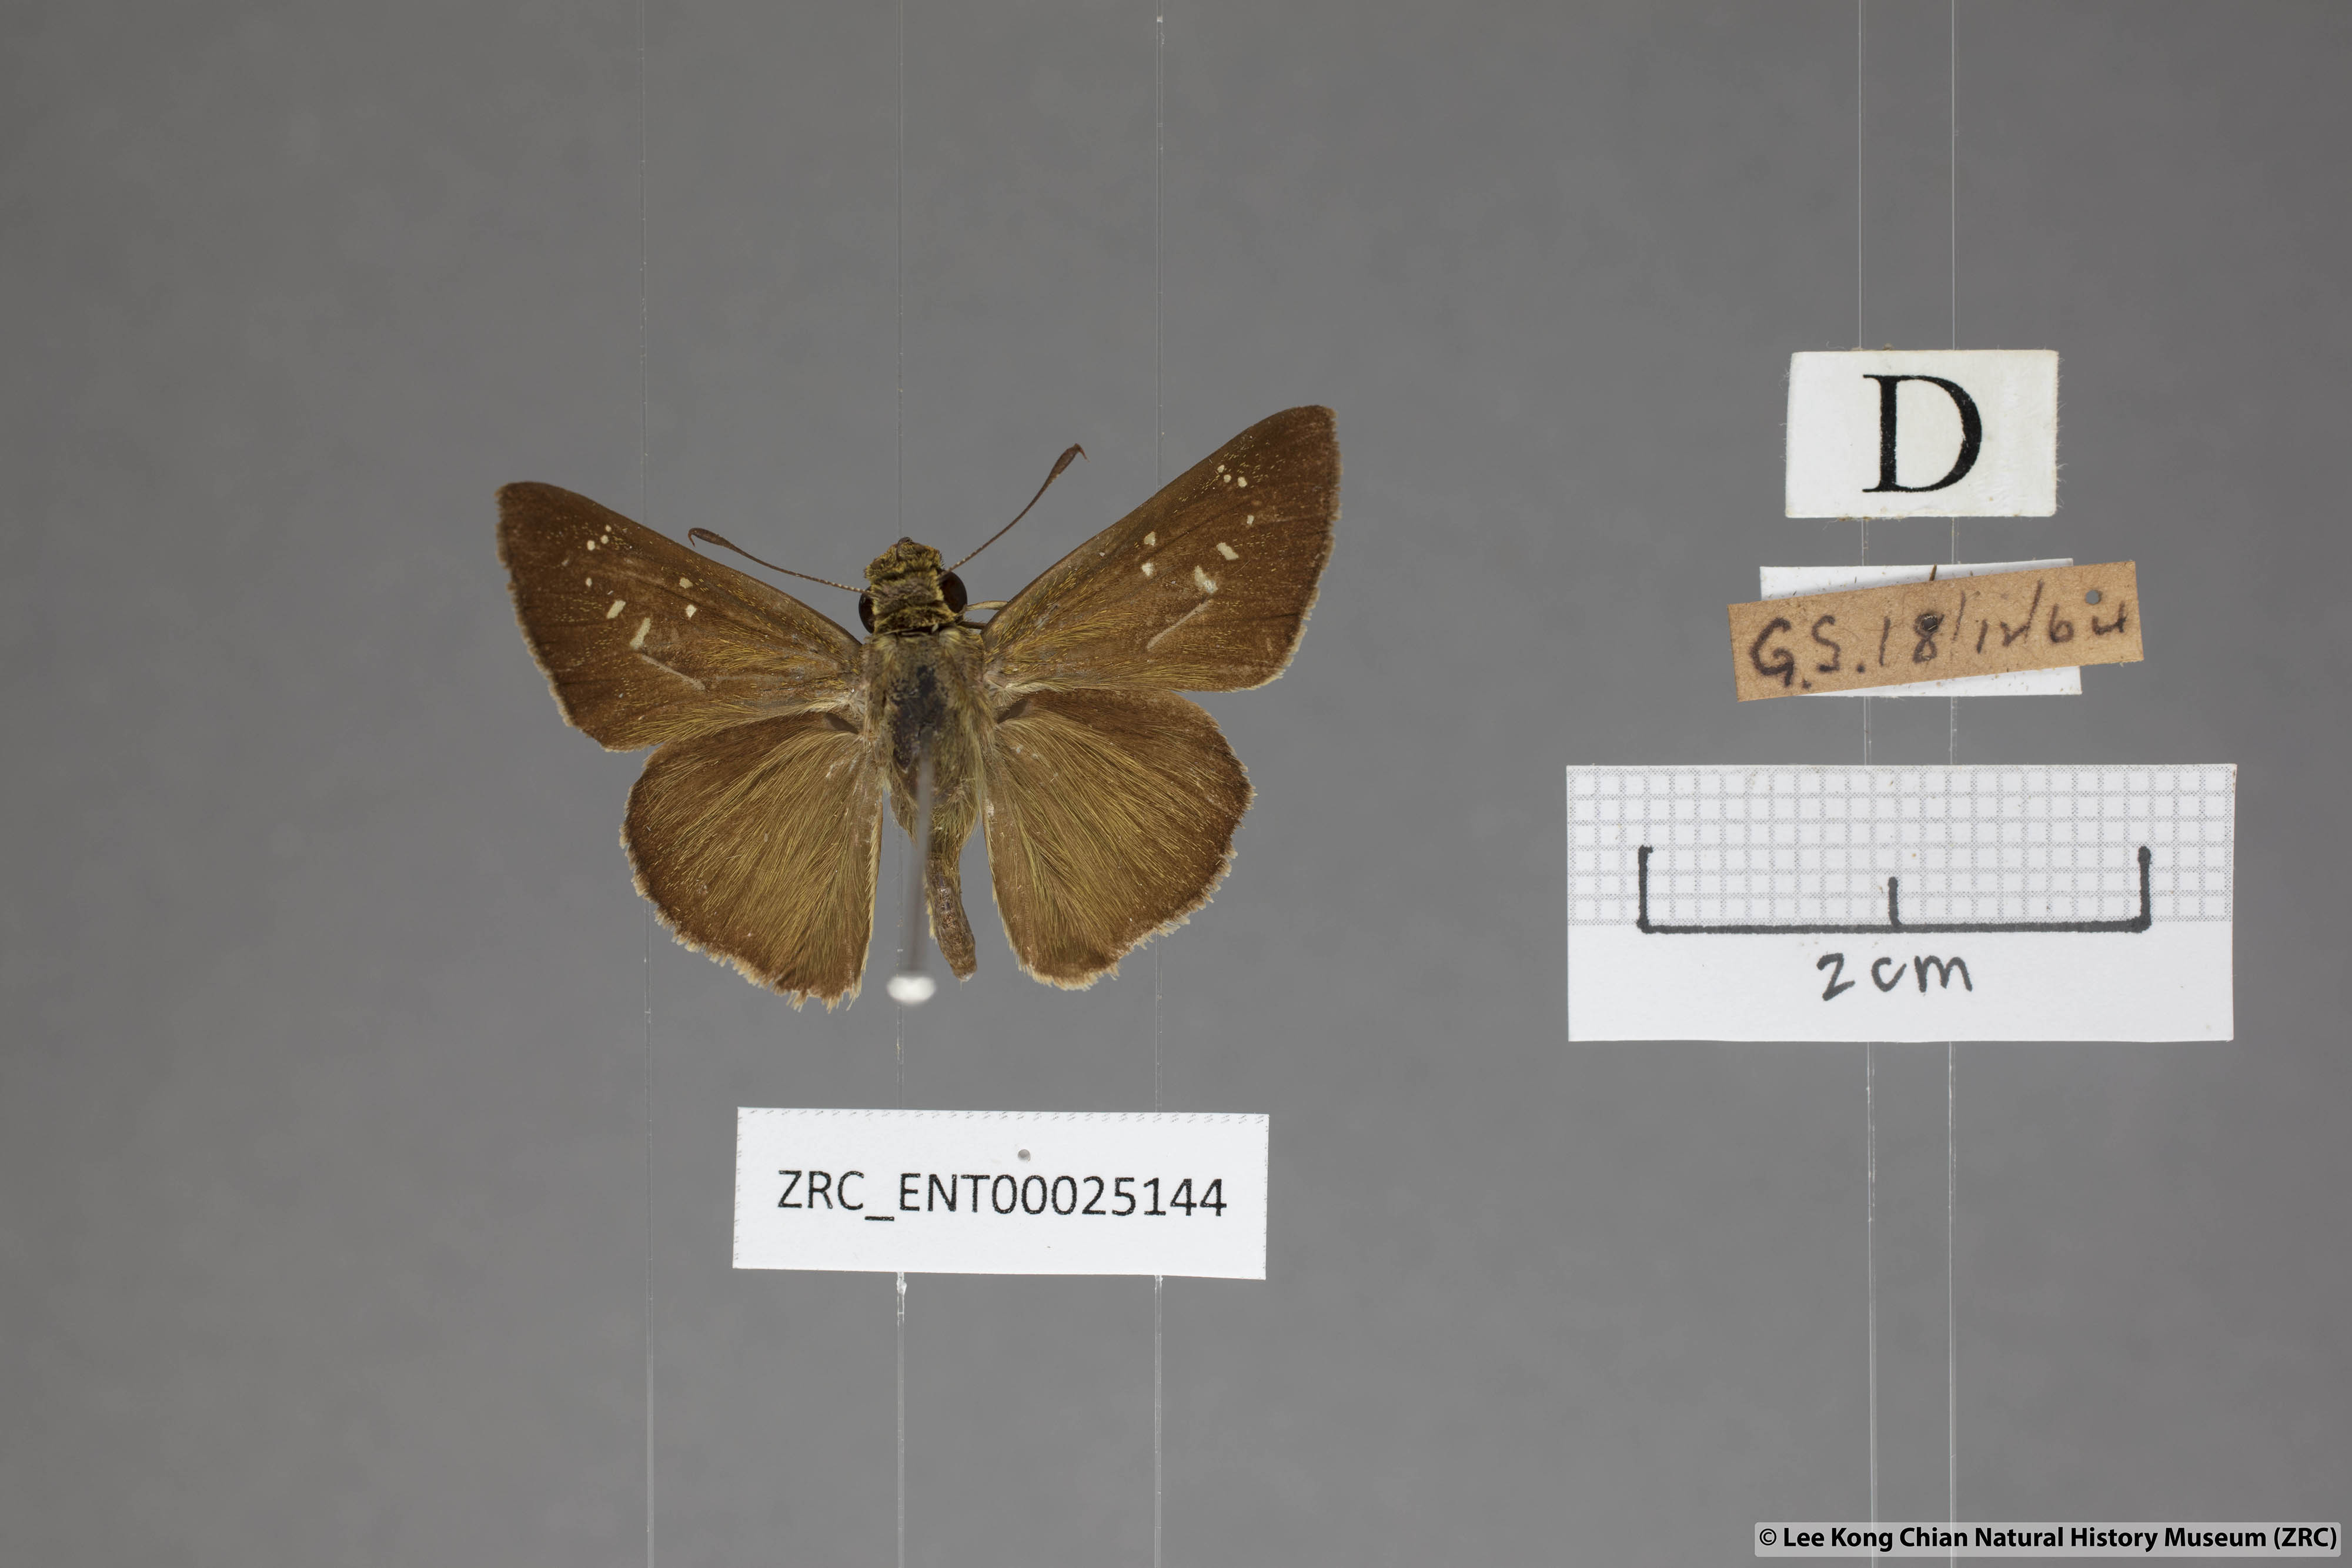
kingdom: Animalia
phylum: Arthropoda
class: Insecta
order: Lepidoptera
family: Hesperiidae
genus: Pelopidas
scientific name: Pelopidas agna
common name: Little branded swift
